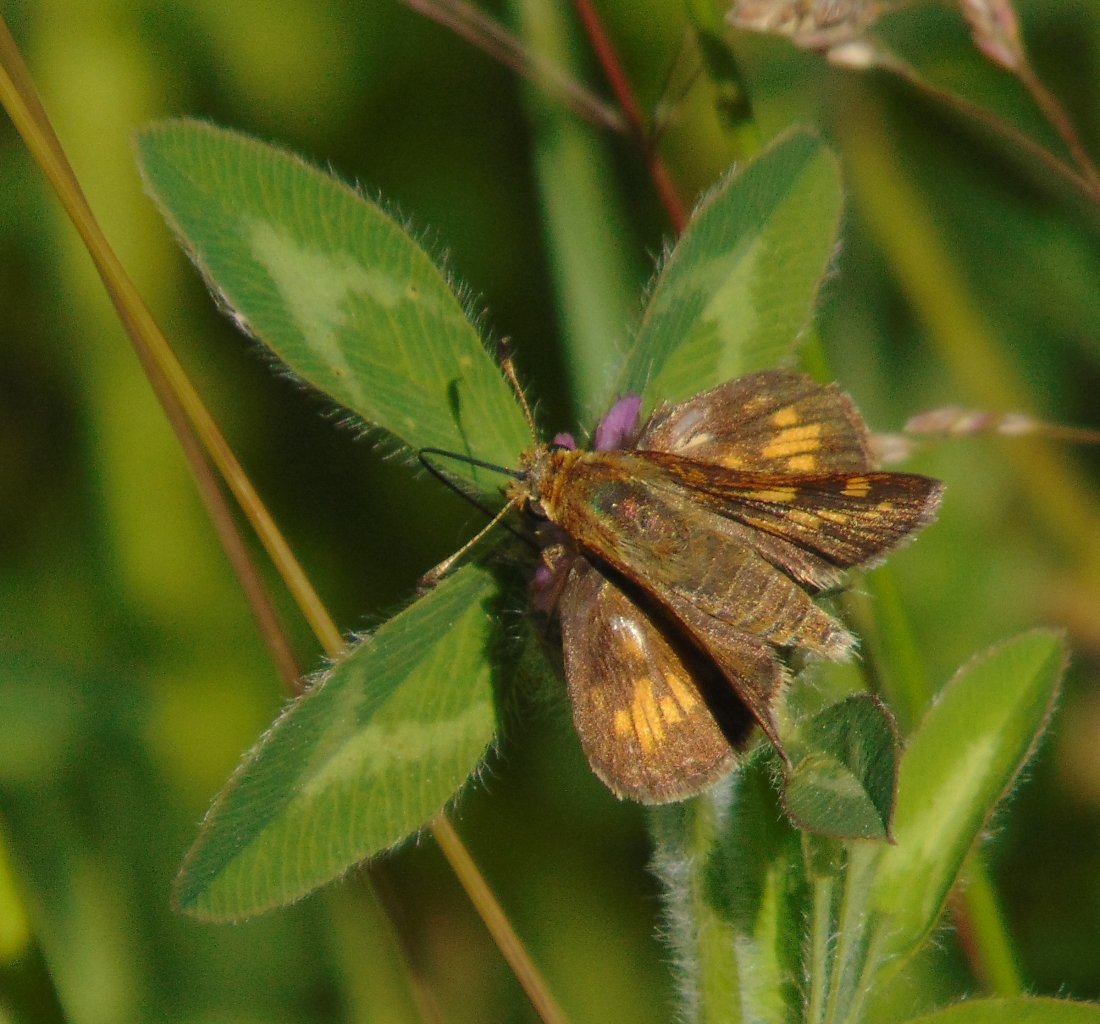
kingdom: Animalia
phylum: Arthropoda
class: Insecta
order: Lepidoptera
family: Hesperiidae
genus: Polites
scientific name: Polites coras
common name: Peck's Skipper
